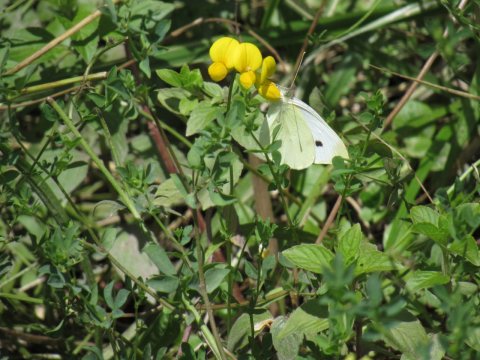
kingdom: Animalia
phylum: Arthropoda
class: Insecta
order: Lepidoptera
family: Pieridae
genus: Pieris
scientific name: Pieris rapae
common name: Cabbage White
